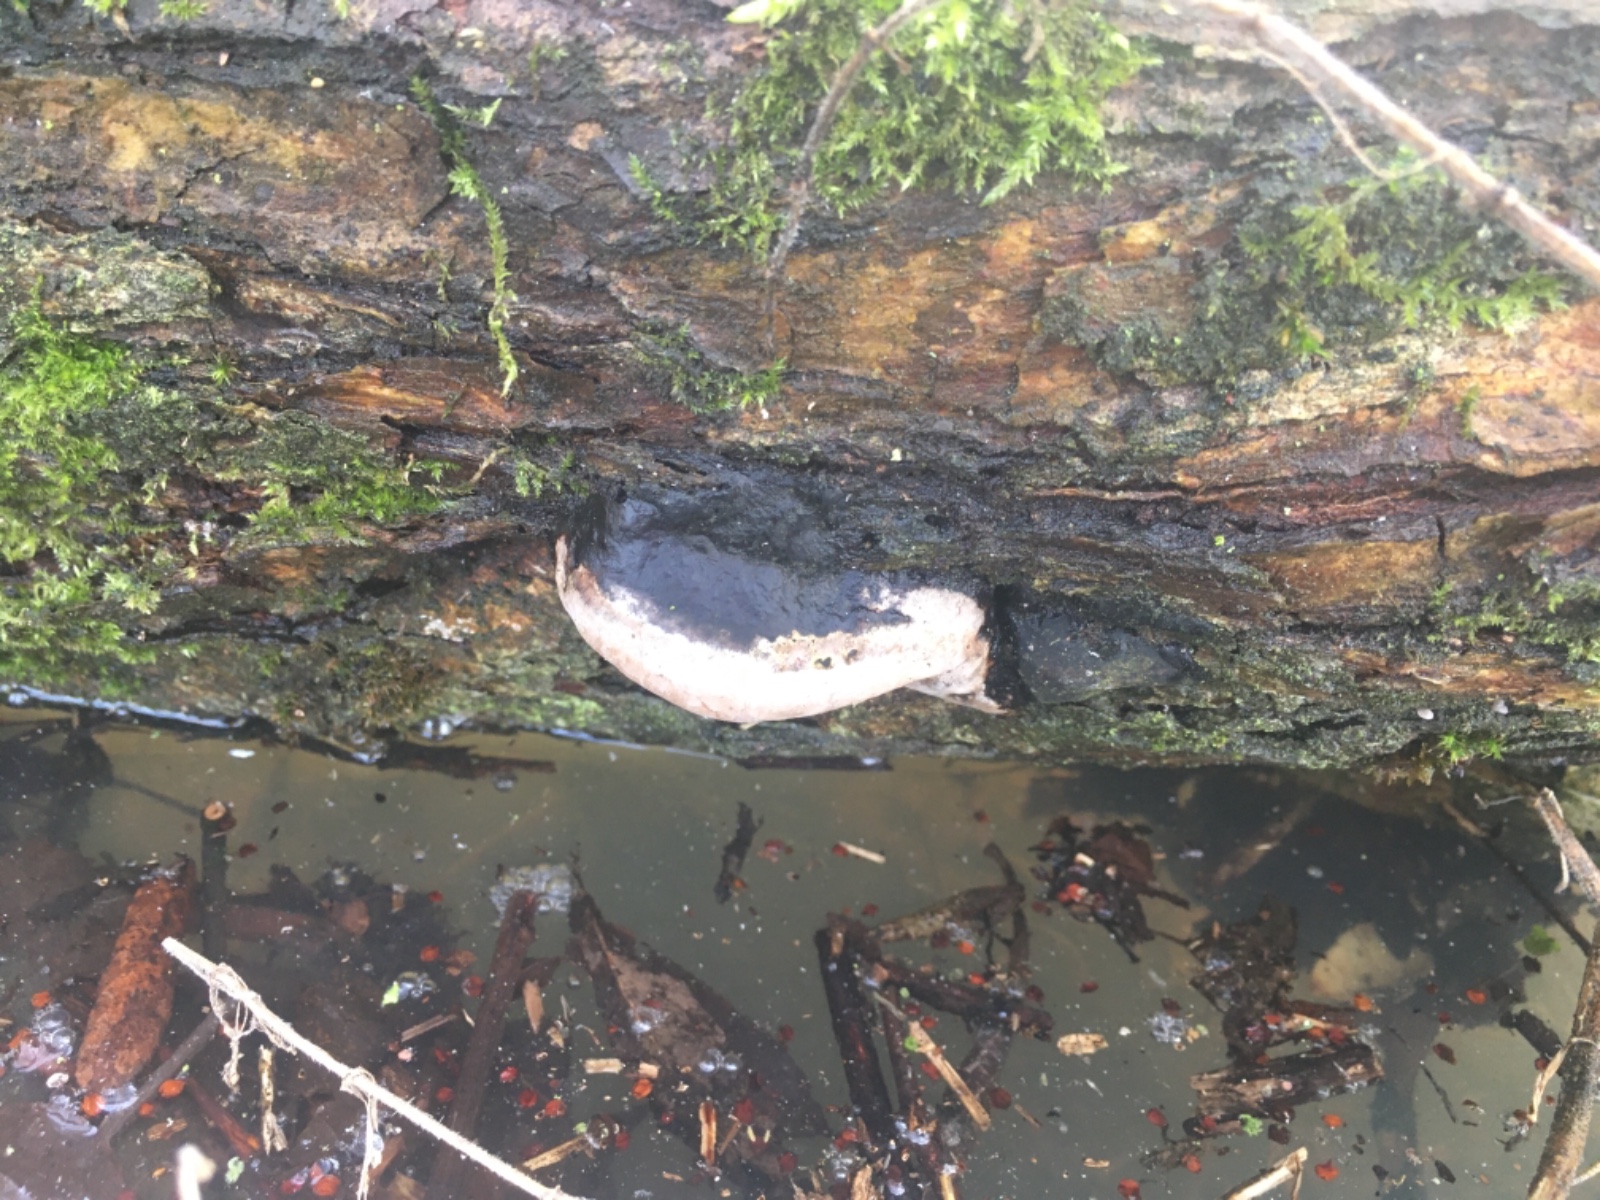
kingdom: Fungi
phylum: Basidiomycota
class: Agaricomycetes
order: Hymenochaetales
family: Hymenochaetaceae
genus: Phellinus
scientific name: Phellinus igniarius
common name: almindelig ildporesvamp
